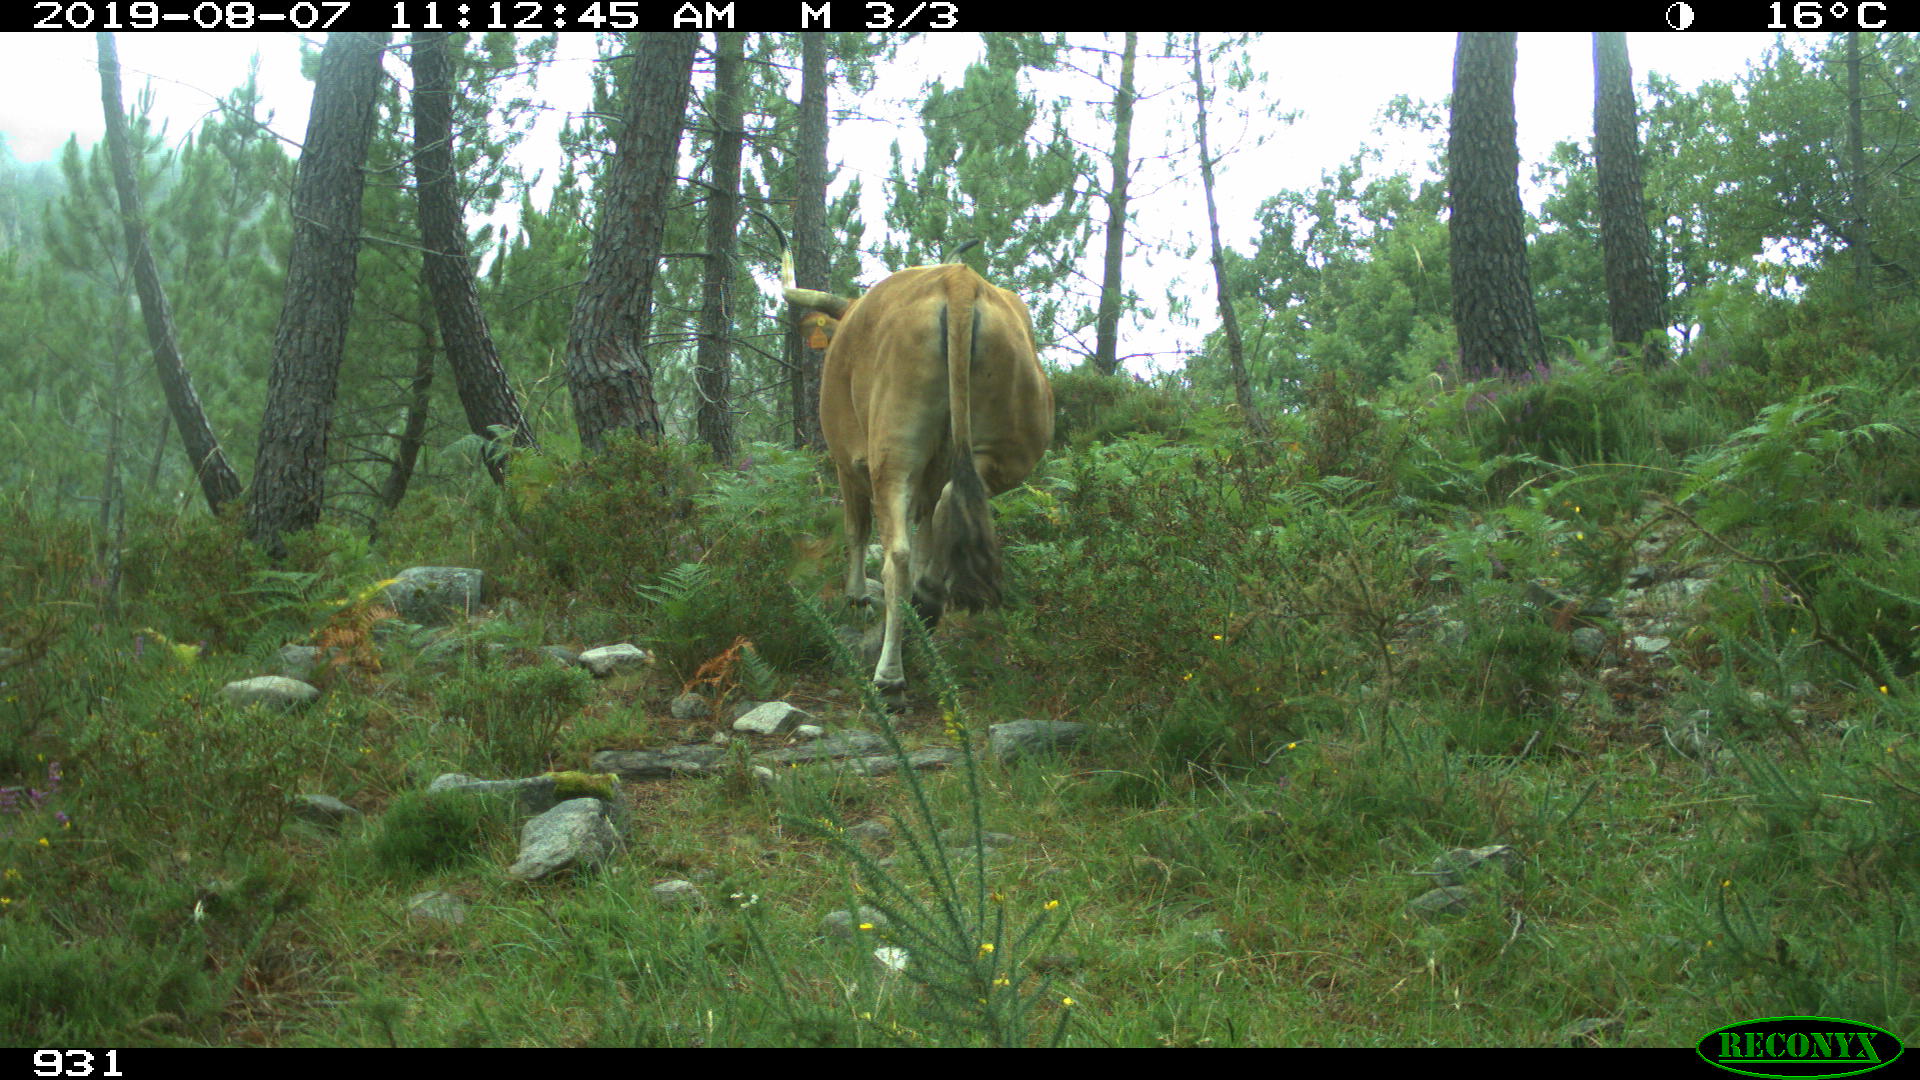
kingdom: Animalia
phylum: Chordata
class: Mammalia
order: Artiodactyla
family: Bovidae
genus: Bos
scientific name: Bos taurus
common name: Domesticated cattle
